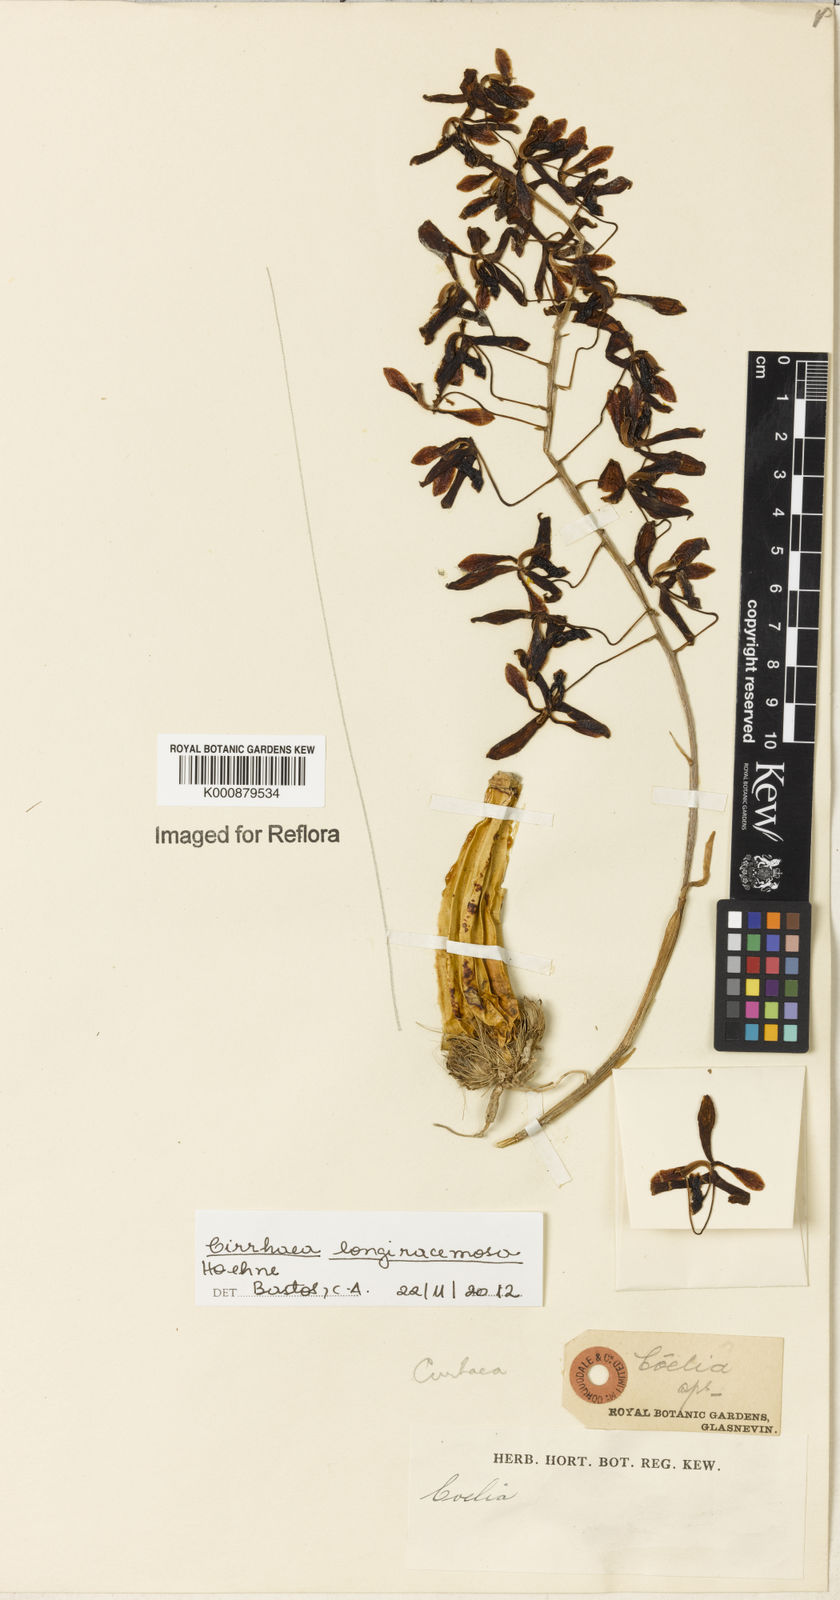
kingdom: Plantae
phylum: Tracheophyta
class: Liliopsida
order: Asparagales
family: Orchidaceae
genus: Cirrhaea
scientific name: Cirrhaea longiracemosa
